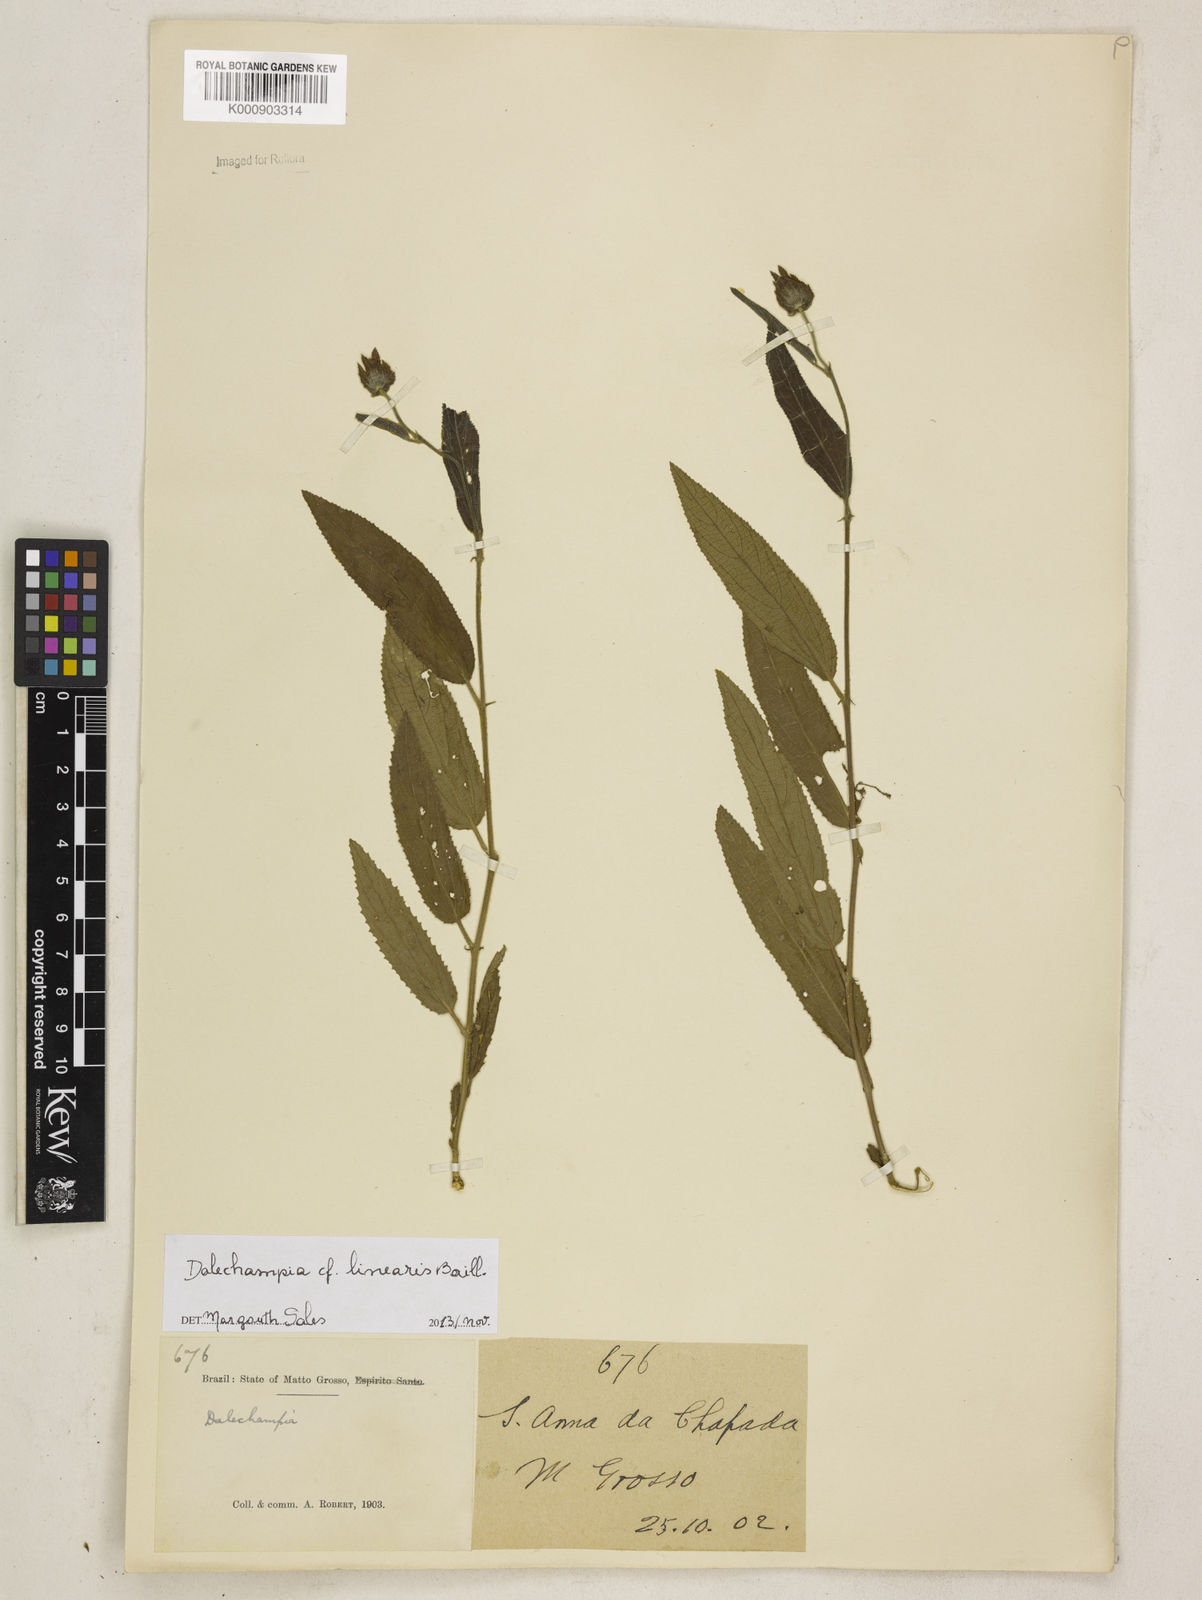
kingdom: Plantae
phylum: Tracheophyta
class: Magnoliopsida
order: Malpighiales
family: Euphorbiaceae
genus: Dalechampia
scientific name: Dalechampia linearis
